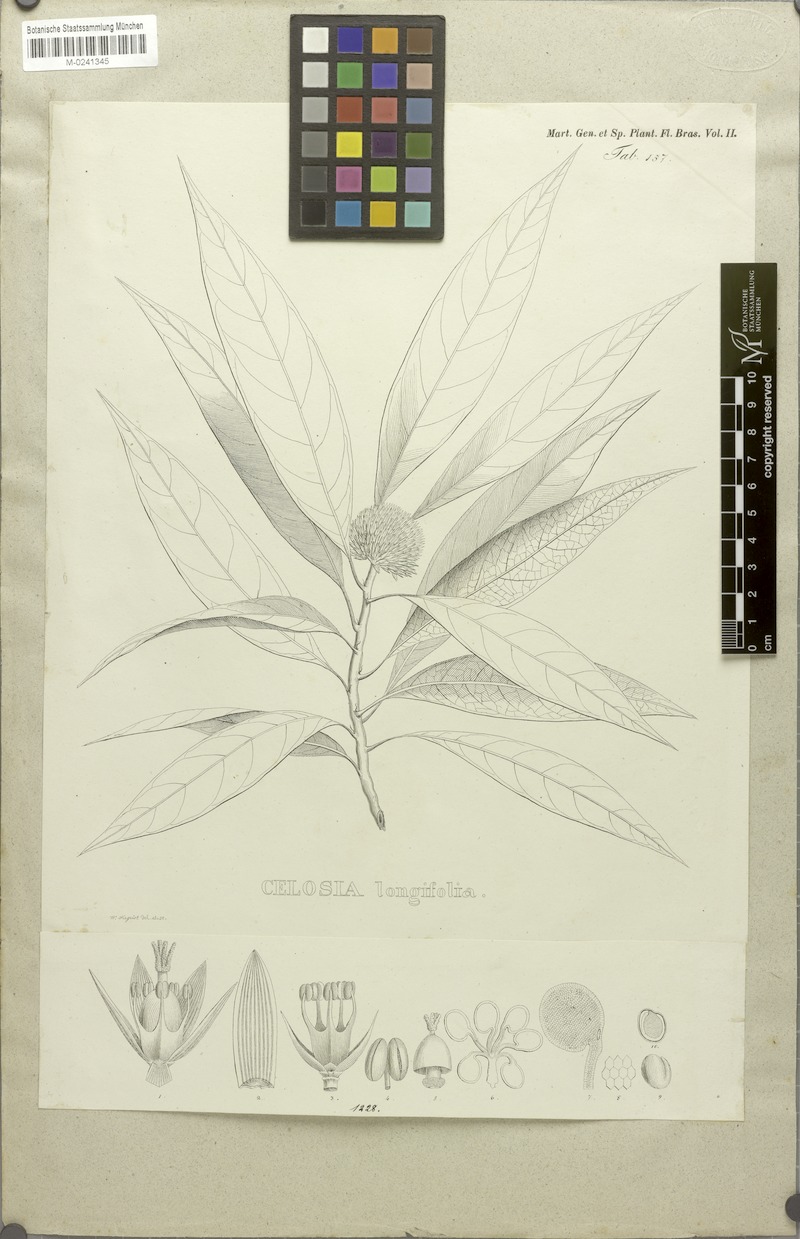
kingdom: Plantae
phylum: Tracheophyta
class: Magnoliopsida
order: Caryophyllales
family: Amaranthaceae
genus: Celosia
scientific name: Celosia longifolia
